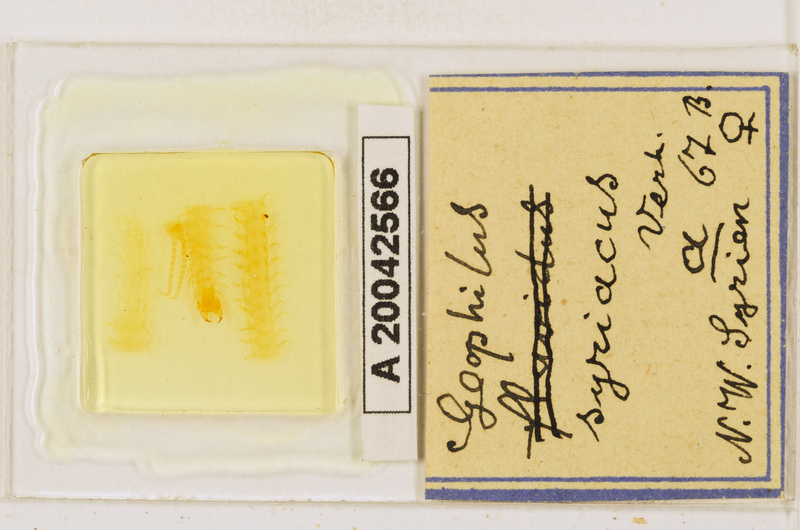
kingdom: Animalia
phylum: Arthropoda
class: Chilopoda
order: Geophilomorpha
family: Geophilidae
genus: Pachymerium
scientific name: Pachymerium syriacum
